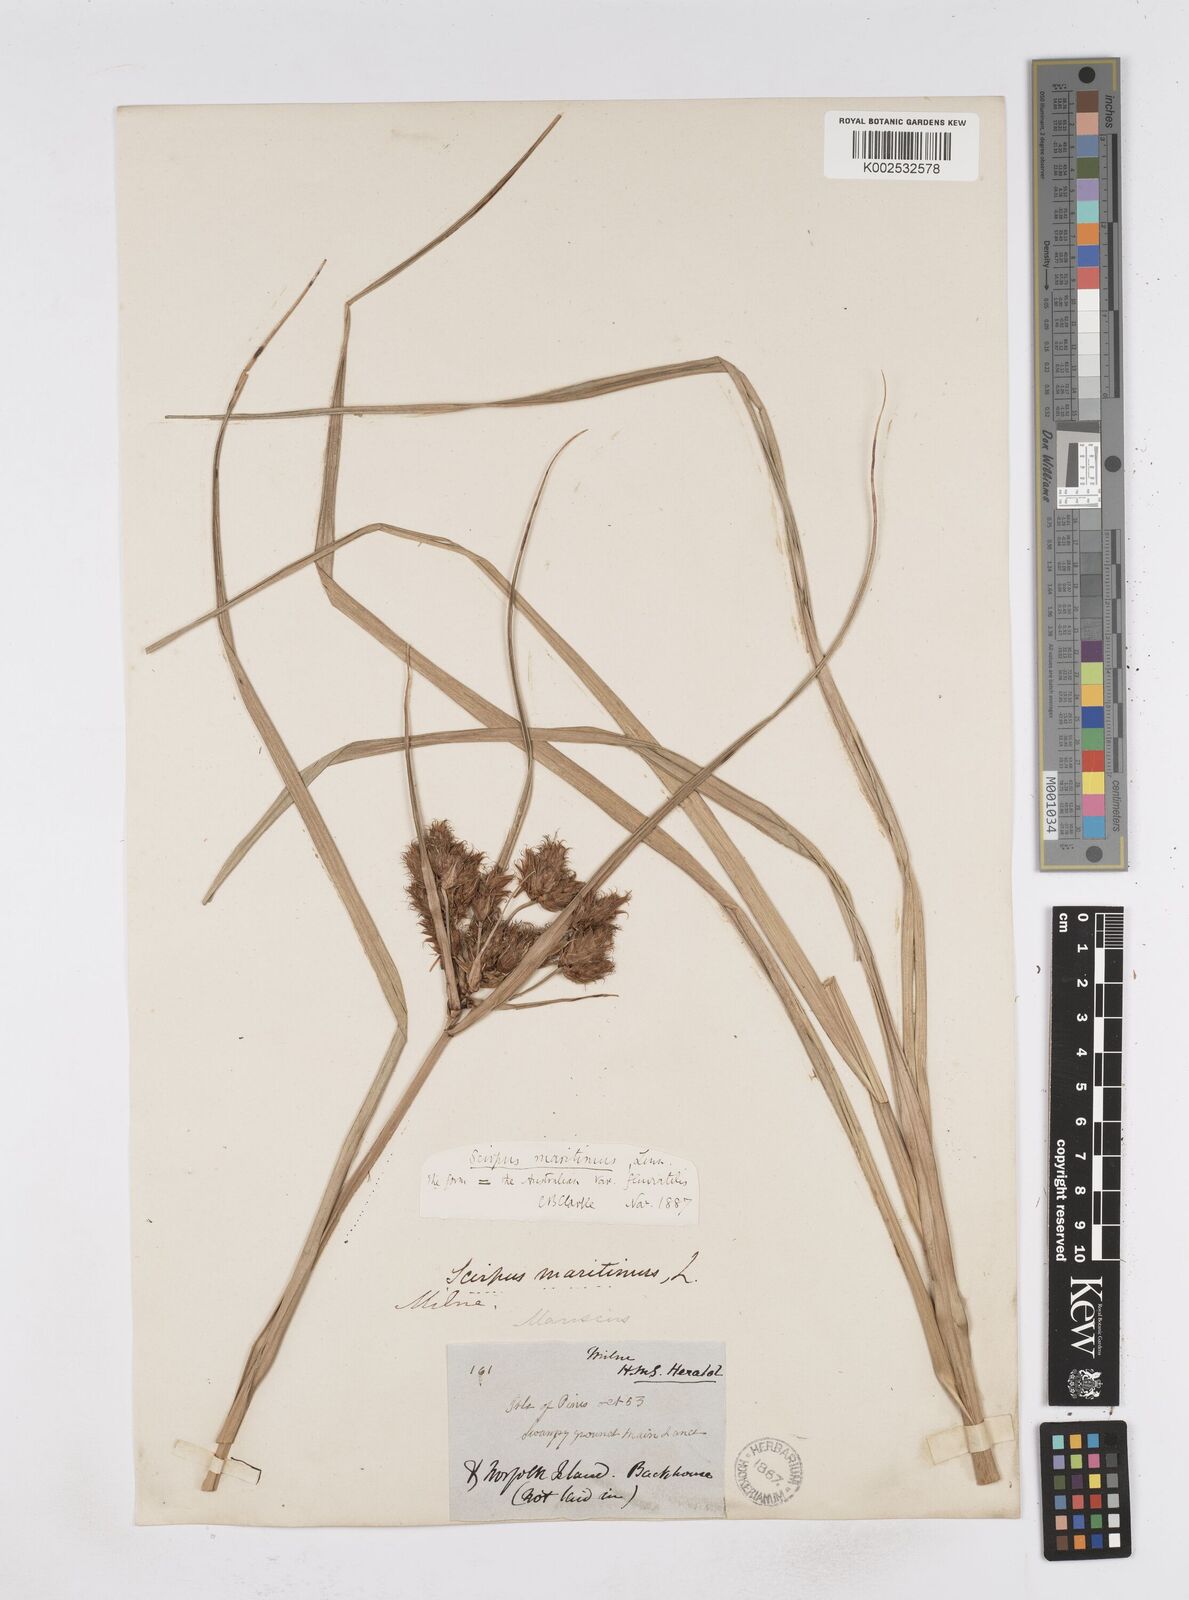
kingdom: Plantae
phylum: Tracheophyta
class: Liliopsida
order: Poales
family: Cyperaceae
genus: Bolboschoenus
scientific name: Bolboschoenus maritimus
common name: Sea club-rush
